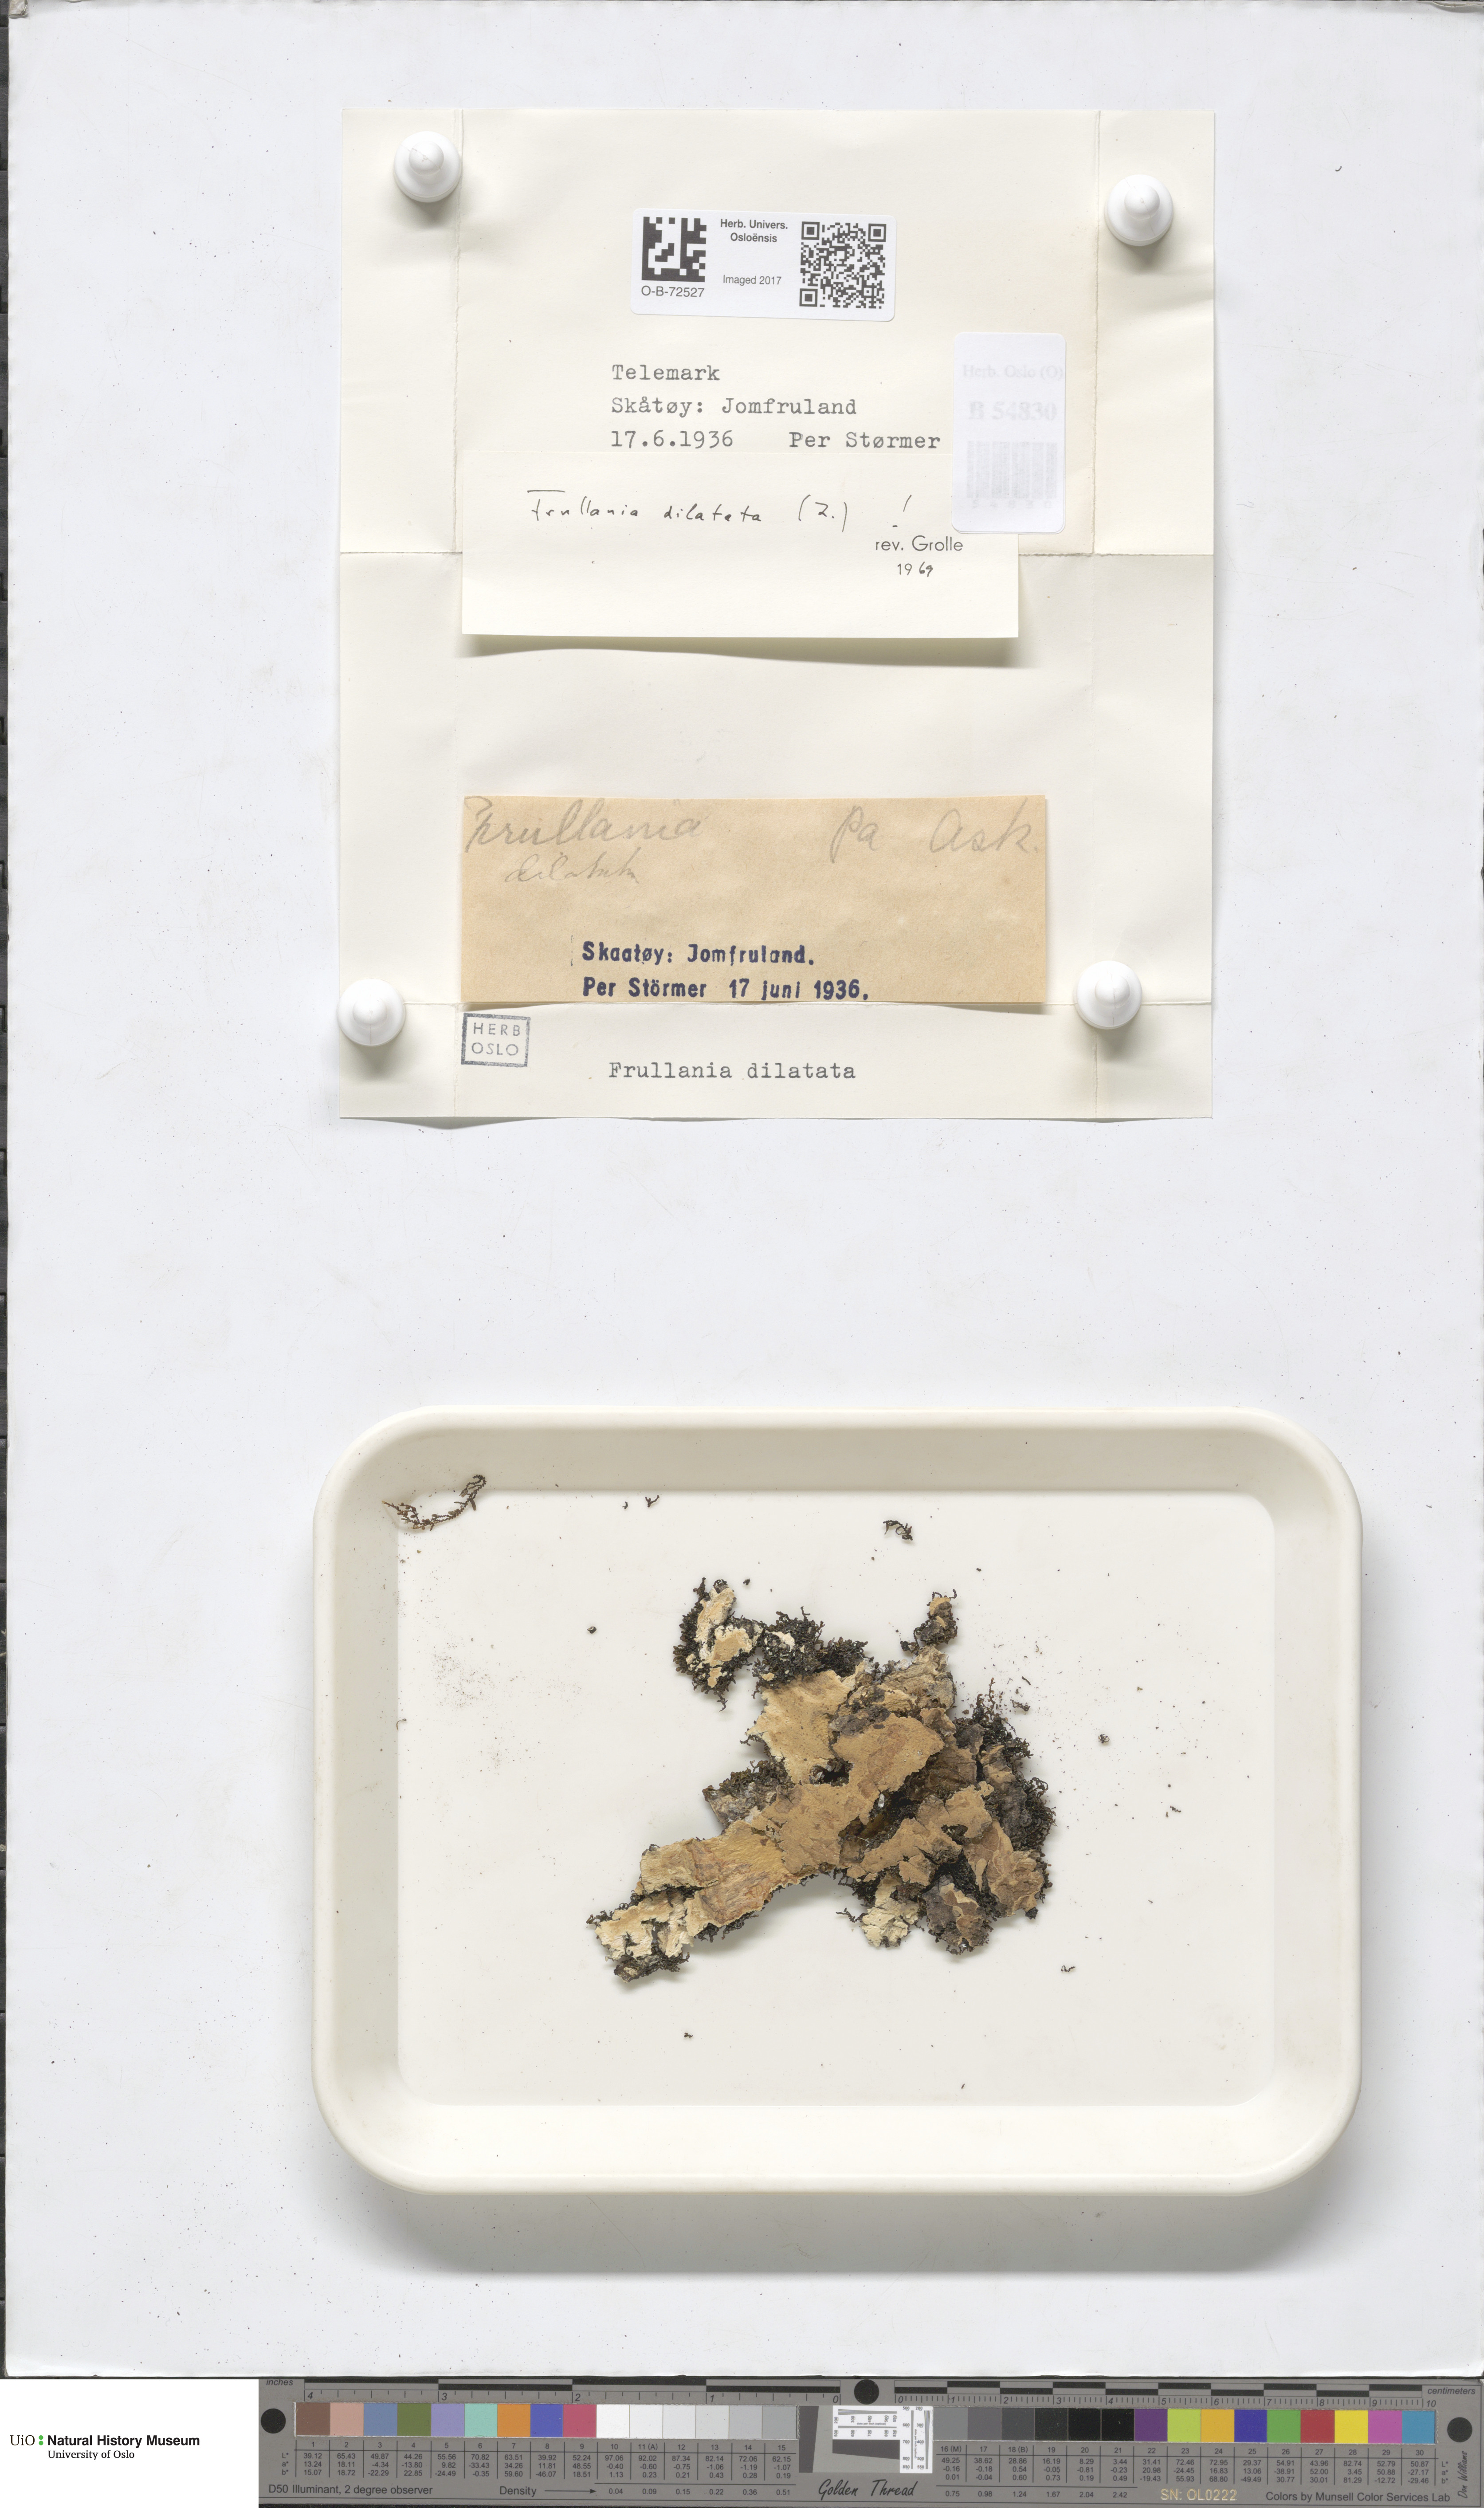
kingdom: Plantae
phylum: Marchantiophyta
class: Jungermanniopsida
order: Porellales
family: Frullaniaceae
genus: Frullania
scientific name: Frullania dilatata
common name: Dilated scalewort
